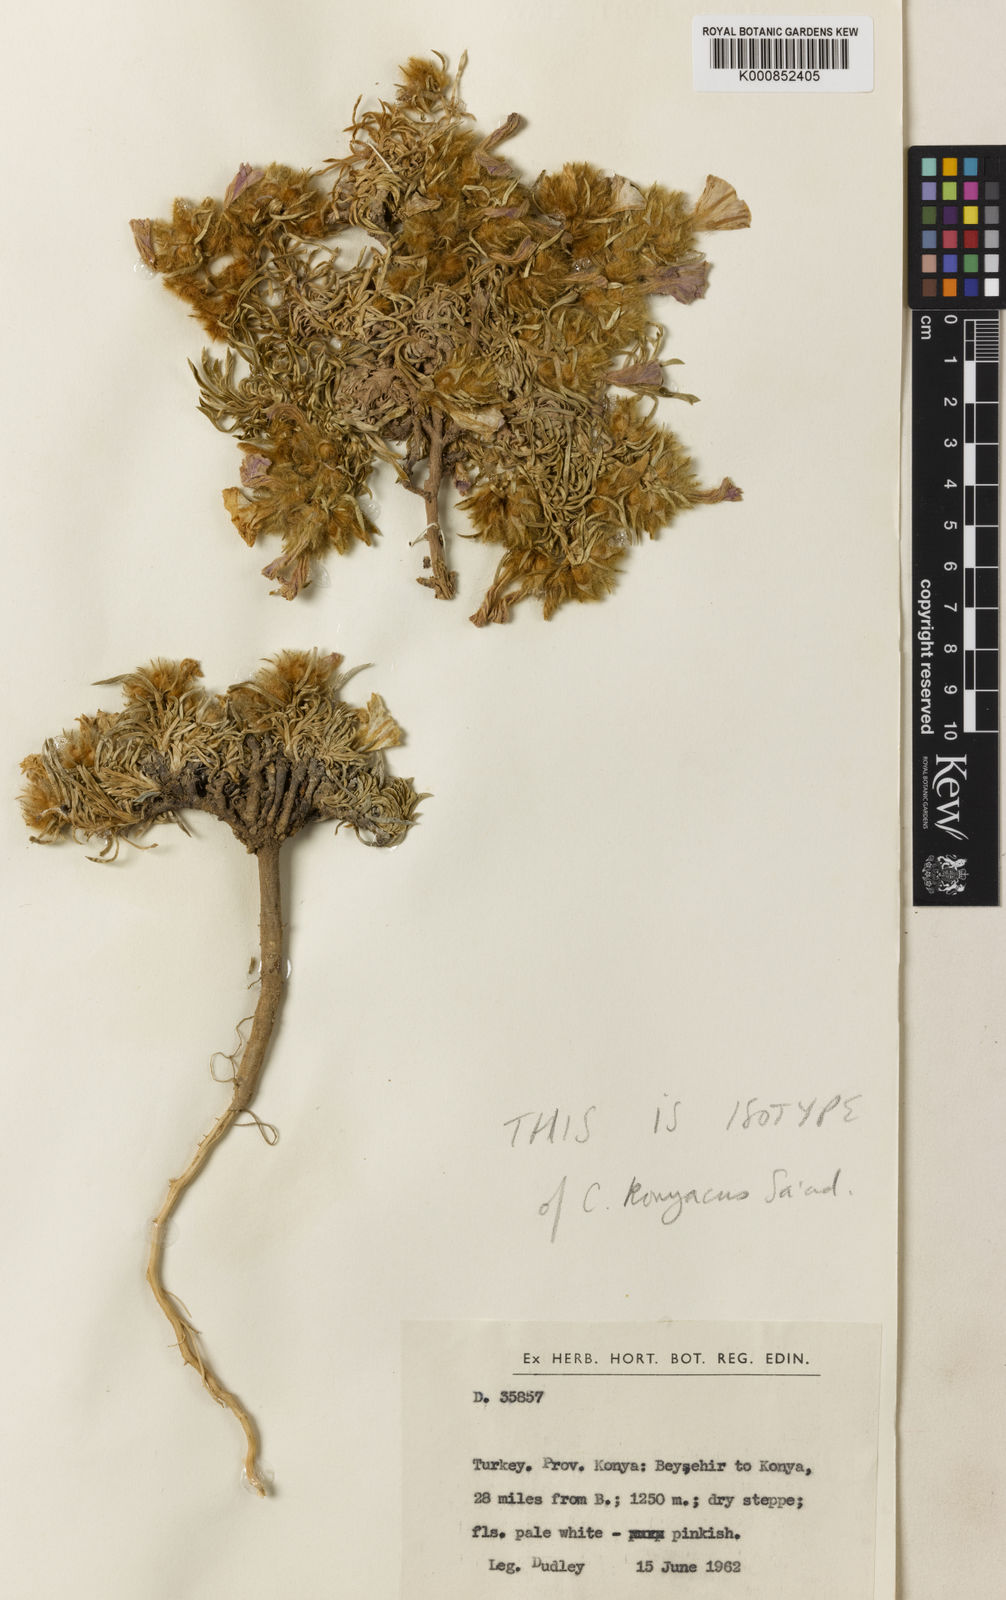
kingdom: Plantae
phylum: Tracheophyta
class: Magnoliopsida
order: Solanales
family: Convolvulaceae
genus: Convolvulus
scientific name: Convolvulus boissieri
